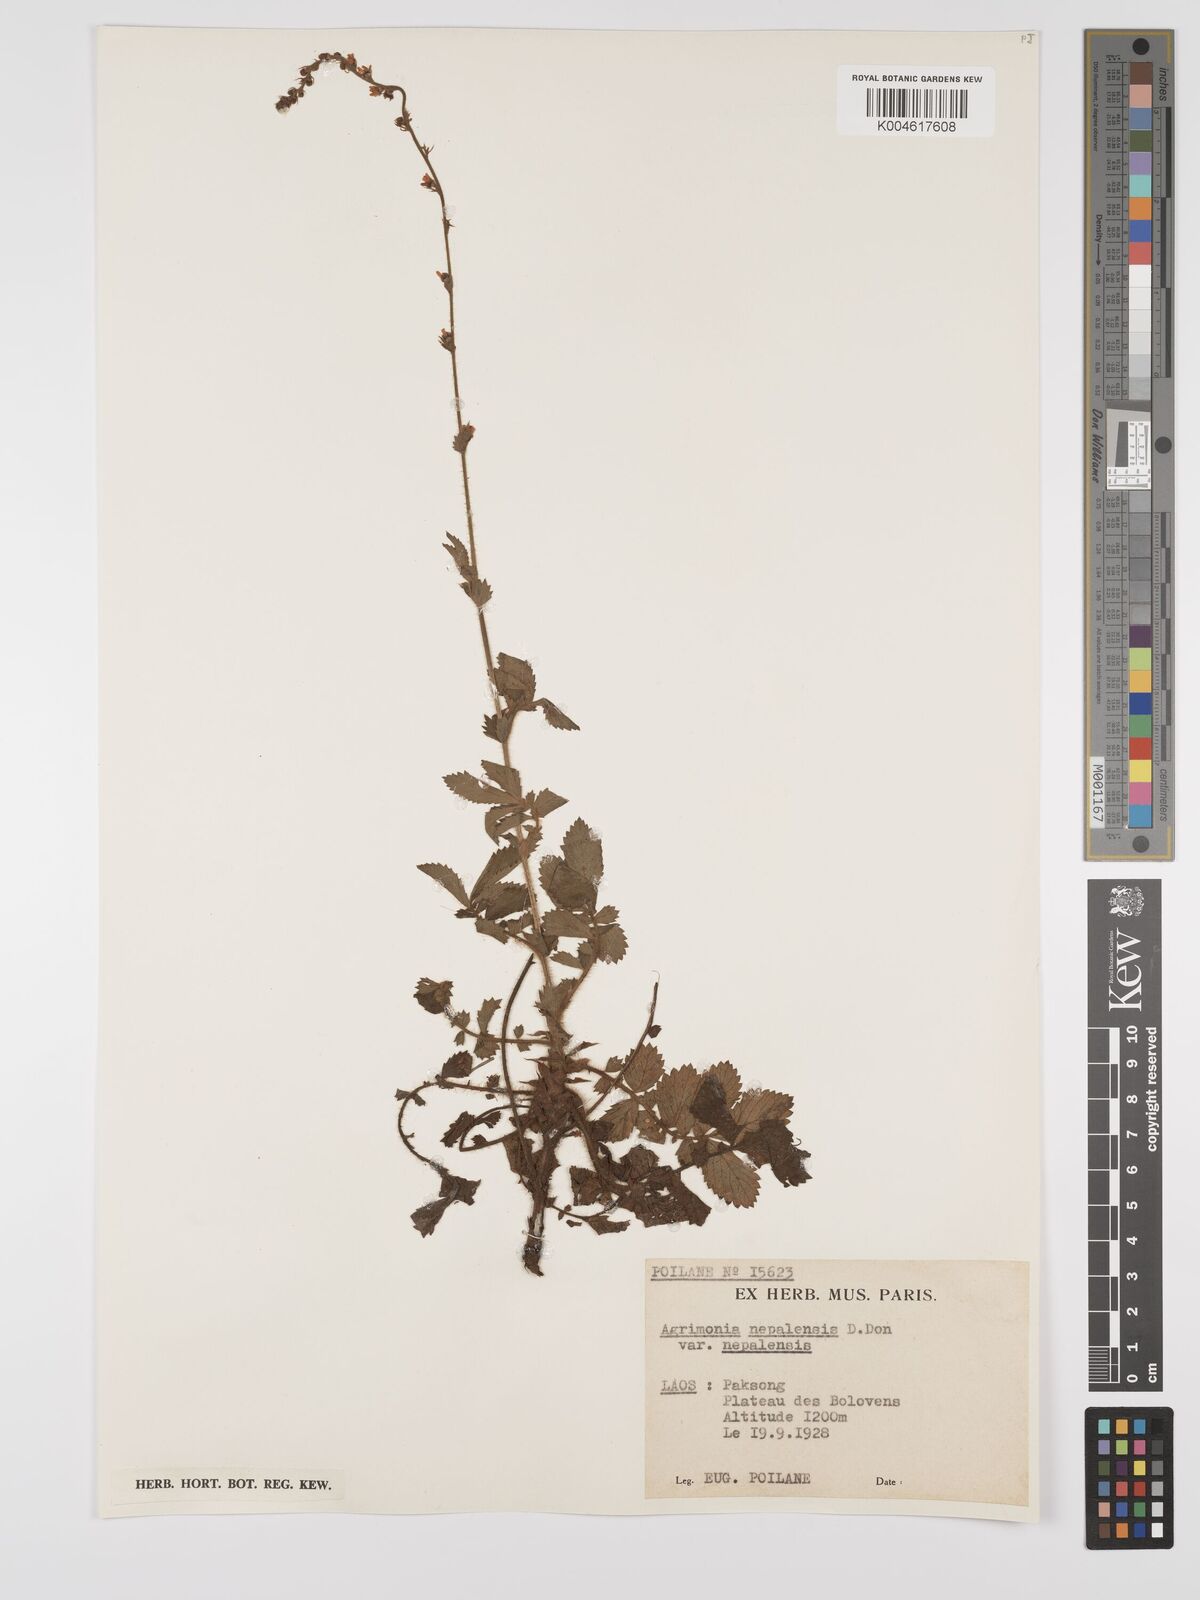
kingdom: Plantae
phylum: Tracheophyta
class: Magnoliopsida
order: Rosales
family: Rosaceae
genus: Agrimonia
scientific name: Agrimonia pilosa
